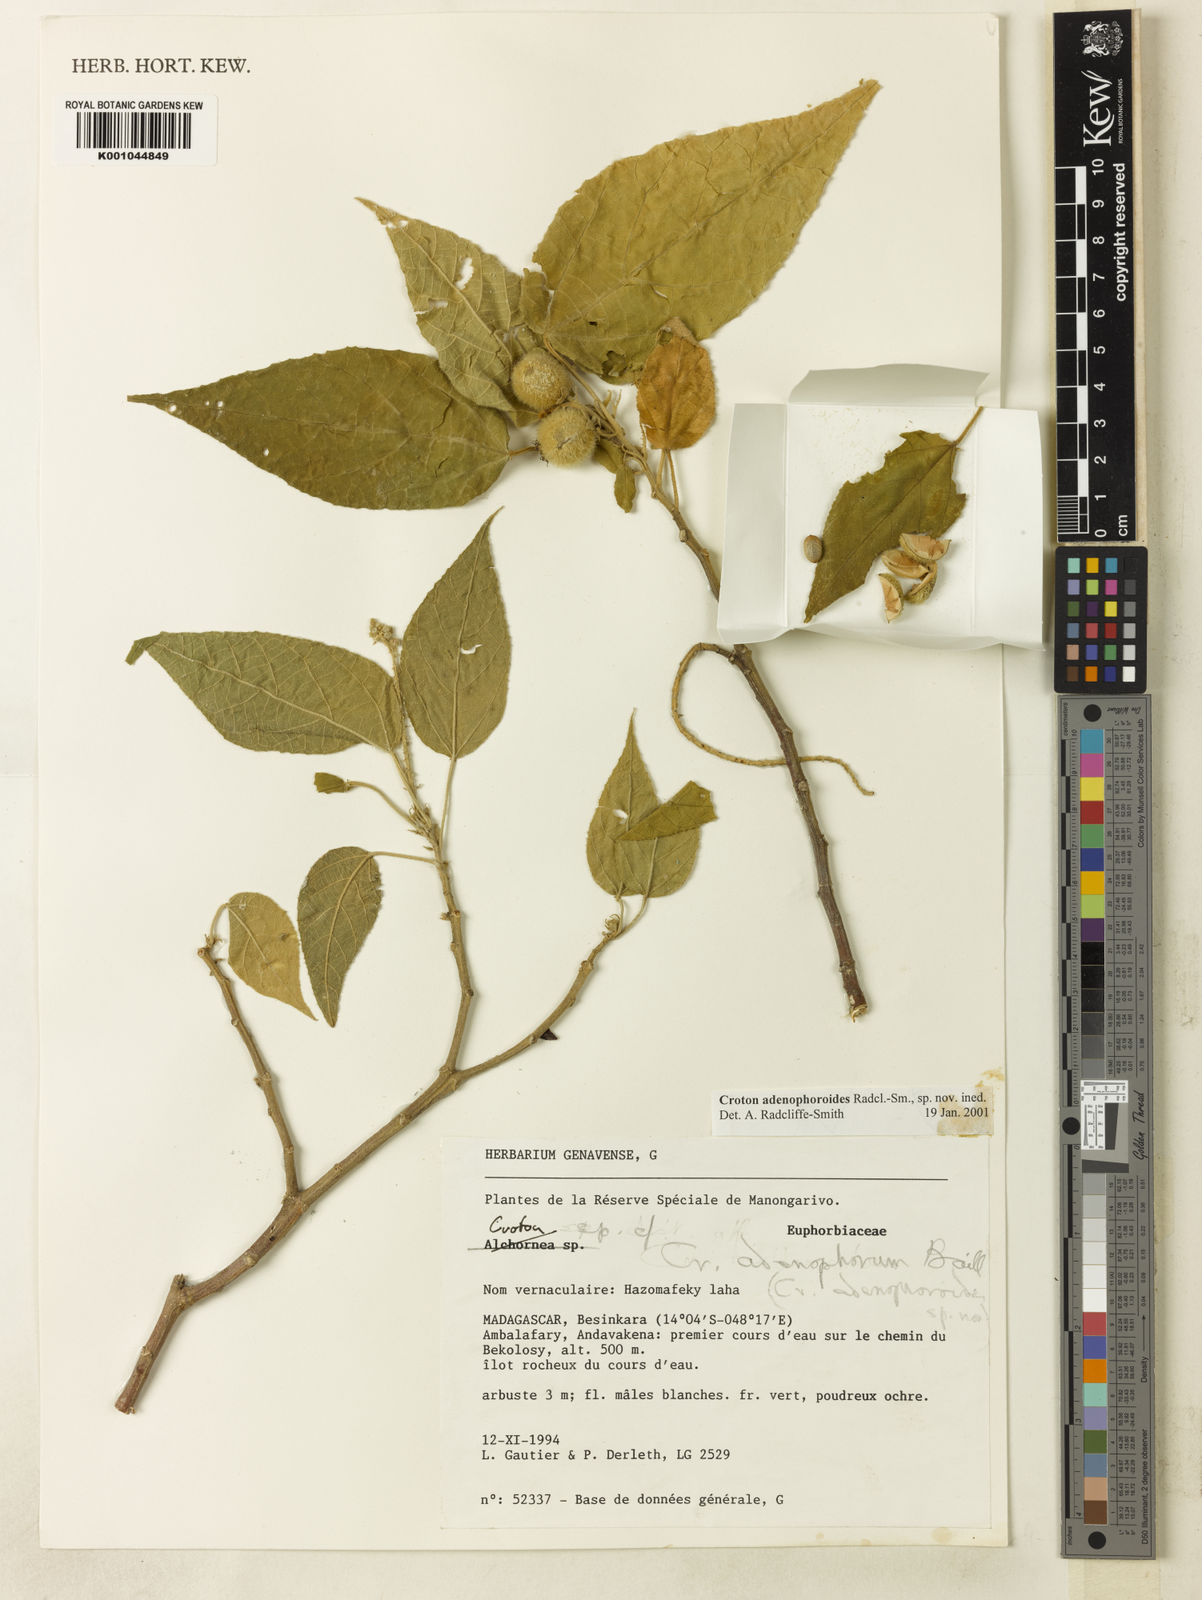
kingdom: Plantae
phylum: Tracheophyta
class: Magnoliopsida
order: Malpighiales
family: Euphorbiaceae
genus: Croton
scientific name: Croton loucoubensis
